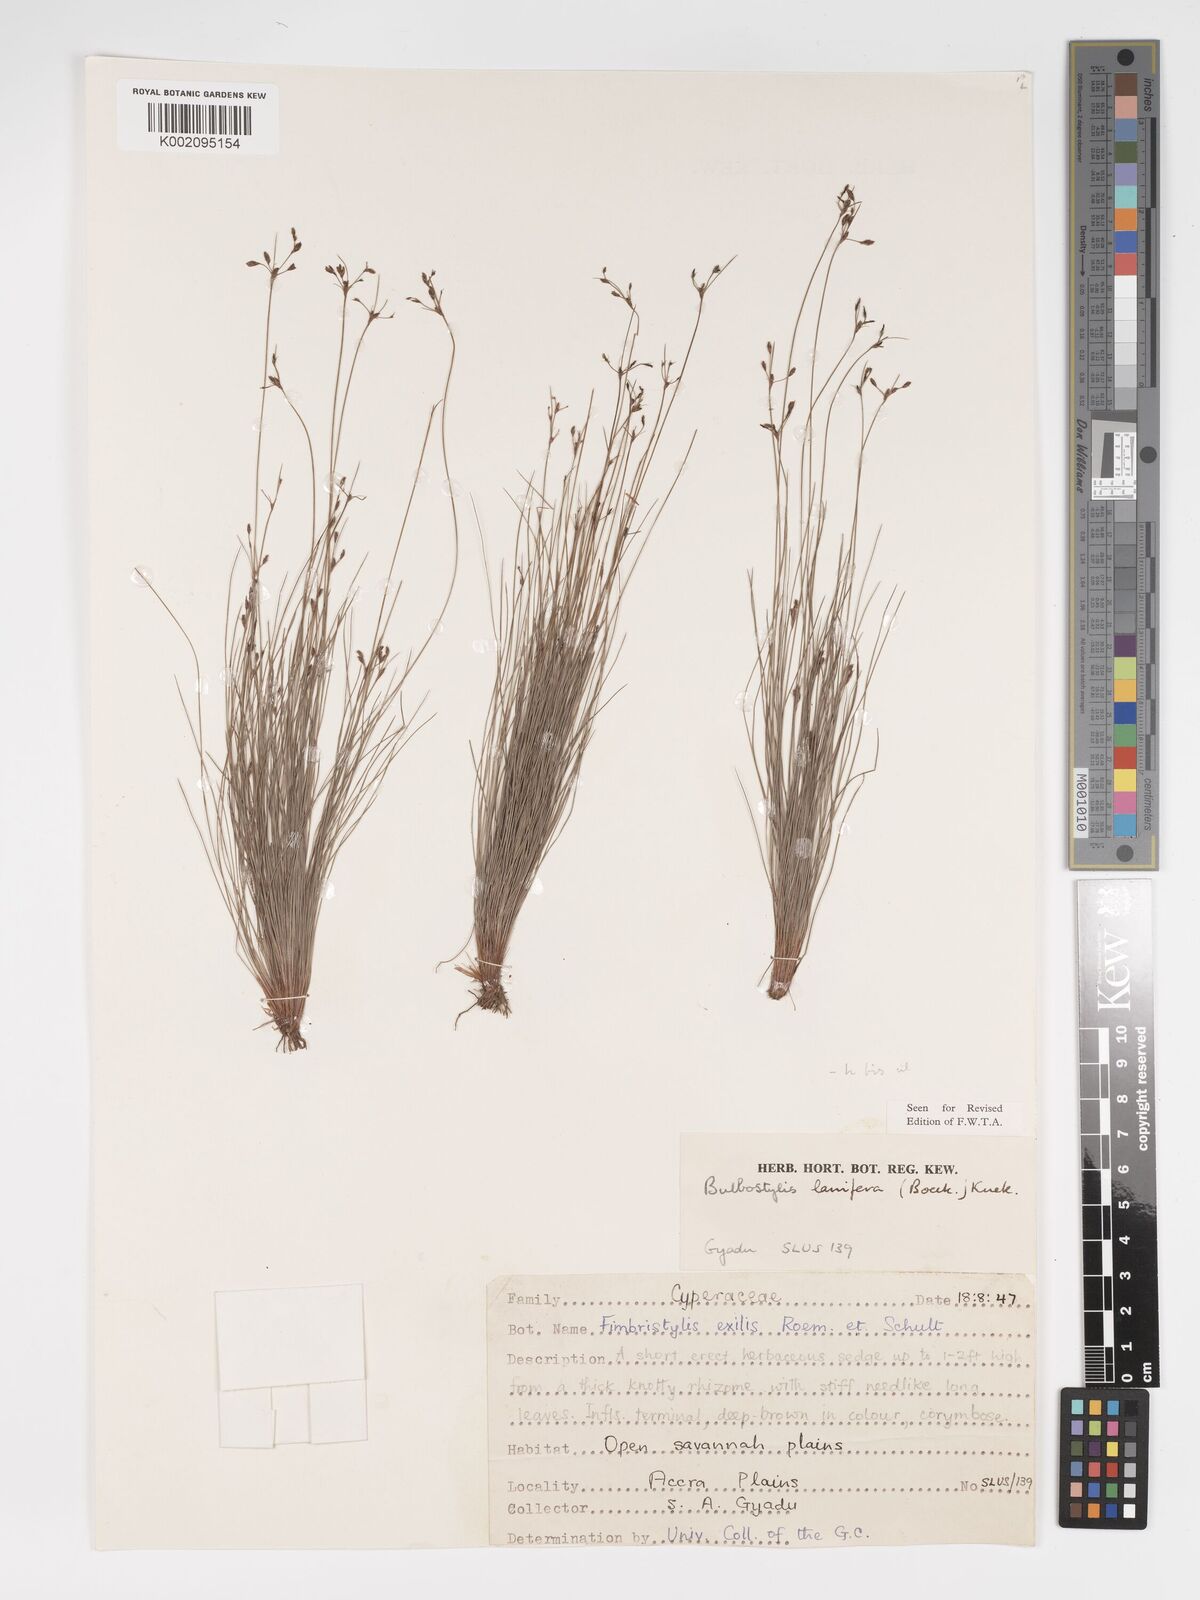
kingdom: Plantae
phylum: Tracheophyta
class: Liliopsida
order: Poales
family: Cyperaceae
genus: Bulbostylis
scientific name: Bulbostylis lanifera
